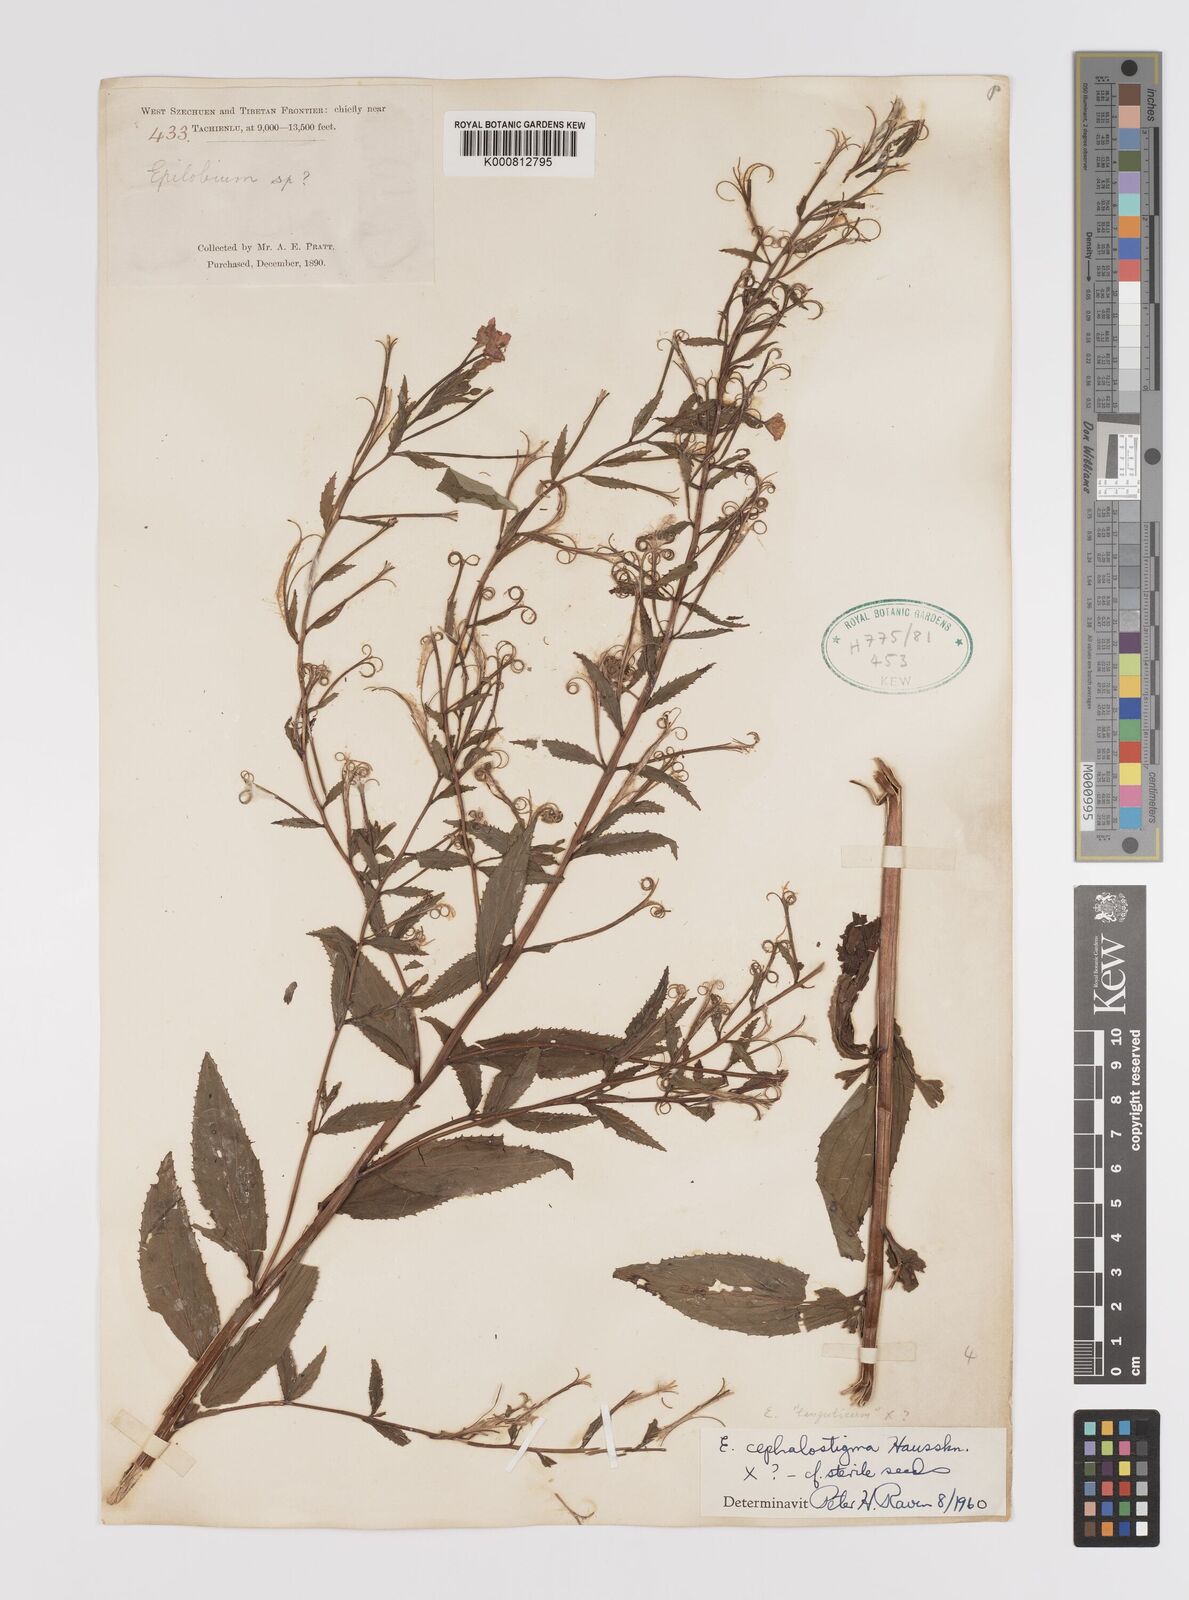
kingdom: Plantae
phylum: Tracheophyta
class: Magnoliopsida
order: Myrtales
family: Onagraceae
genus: Epilobium
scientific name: Epilobium
